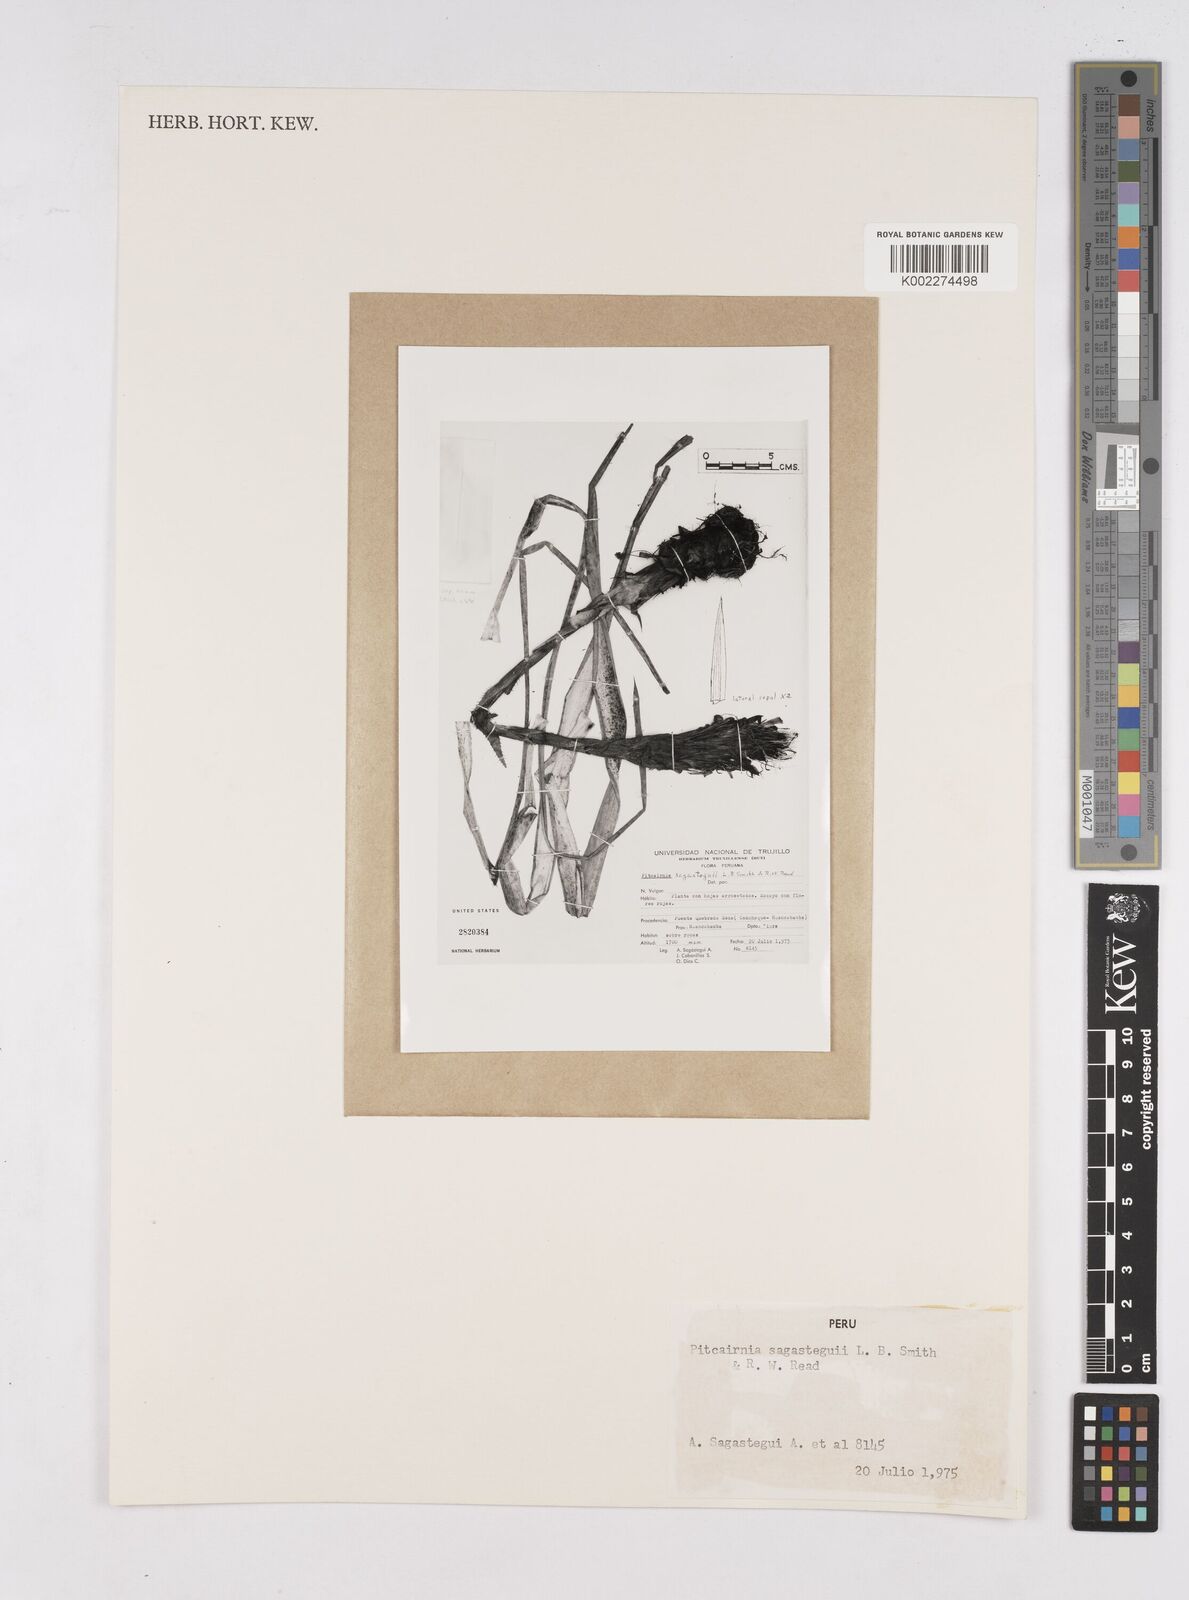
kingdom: Plantae
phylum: Tracheophyta
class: Liliopsida
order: Poales
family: Bromeliaceae
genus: Pitcairnia
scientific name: Pitcairnia sagasteguii
